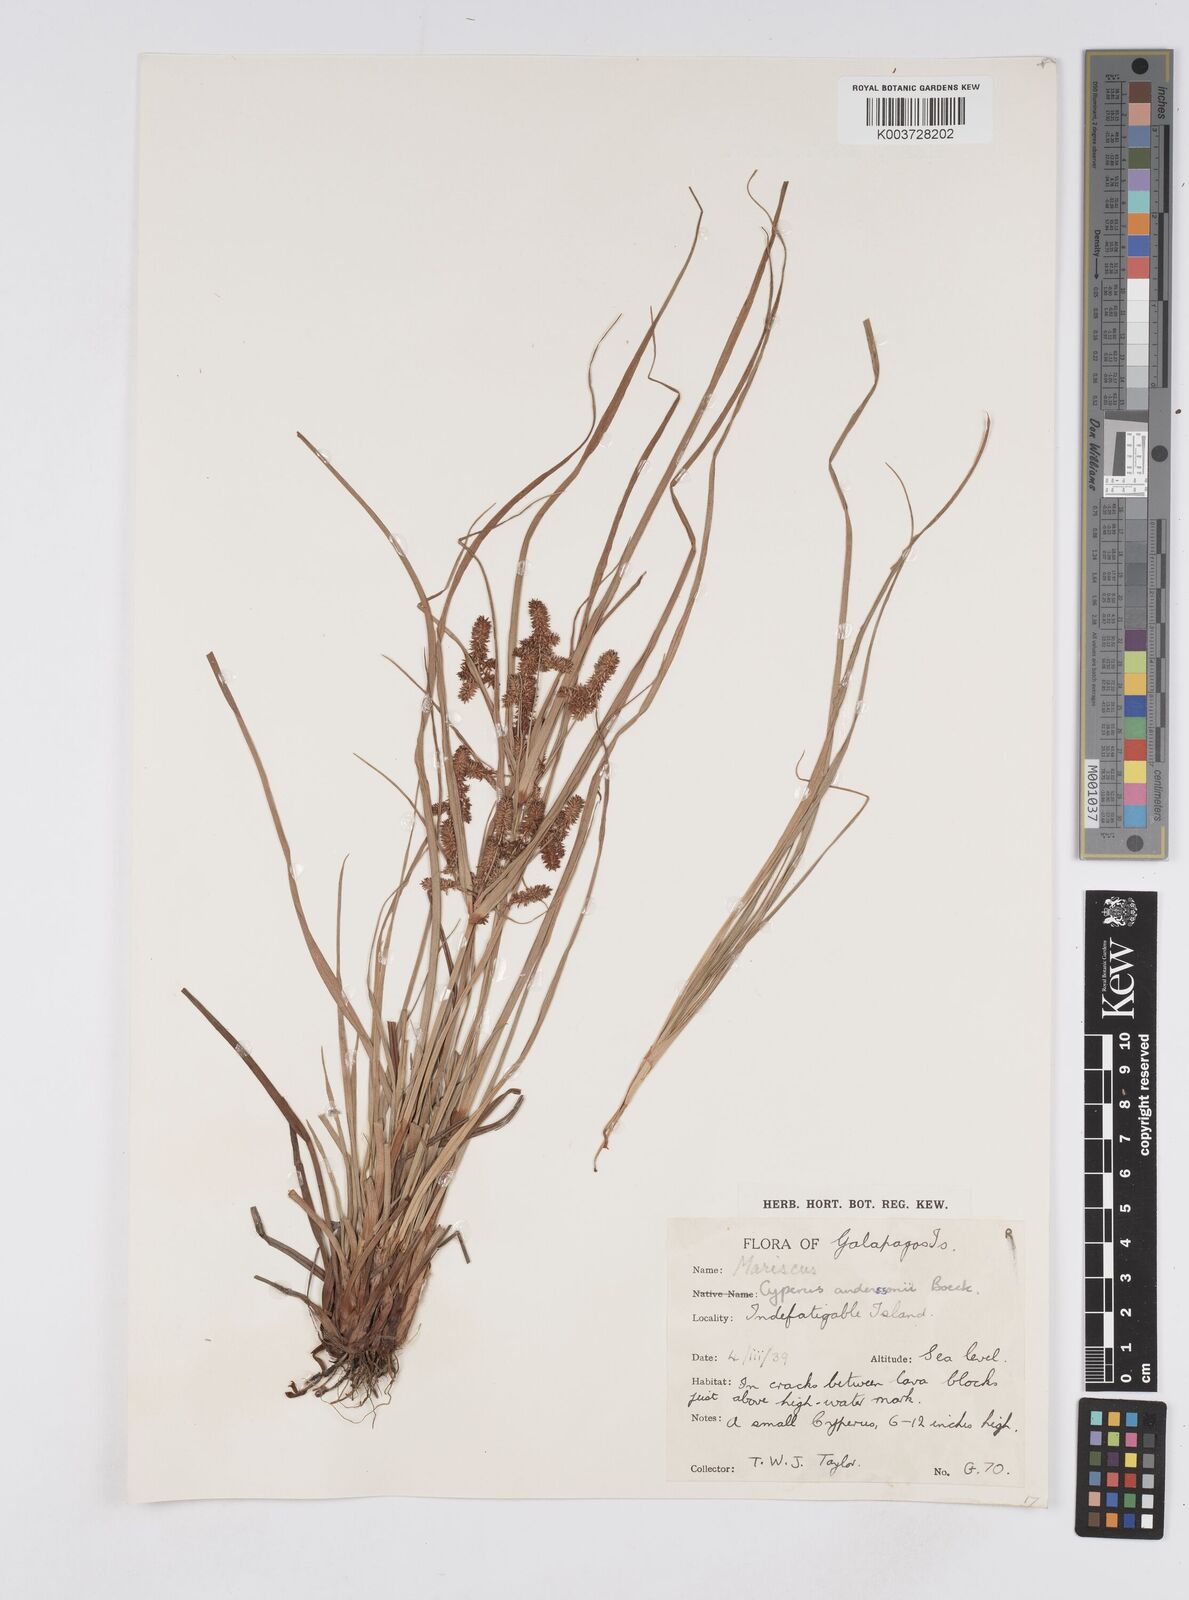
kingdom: Plantae
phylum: Tracheophyta
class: Liliopsida
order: Poales
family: Cyperaceae
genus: Cyperus
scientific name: Cyperus anderssonii
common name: Andersson's sedge
